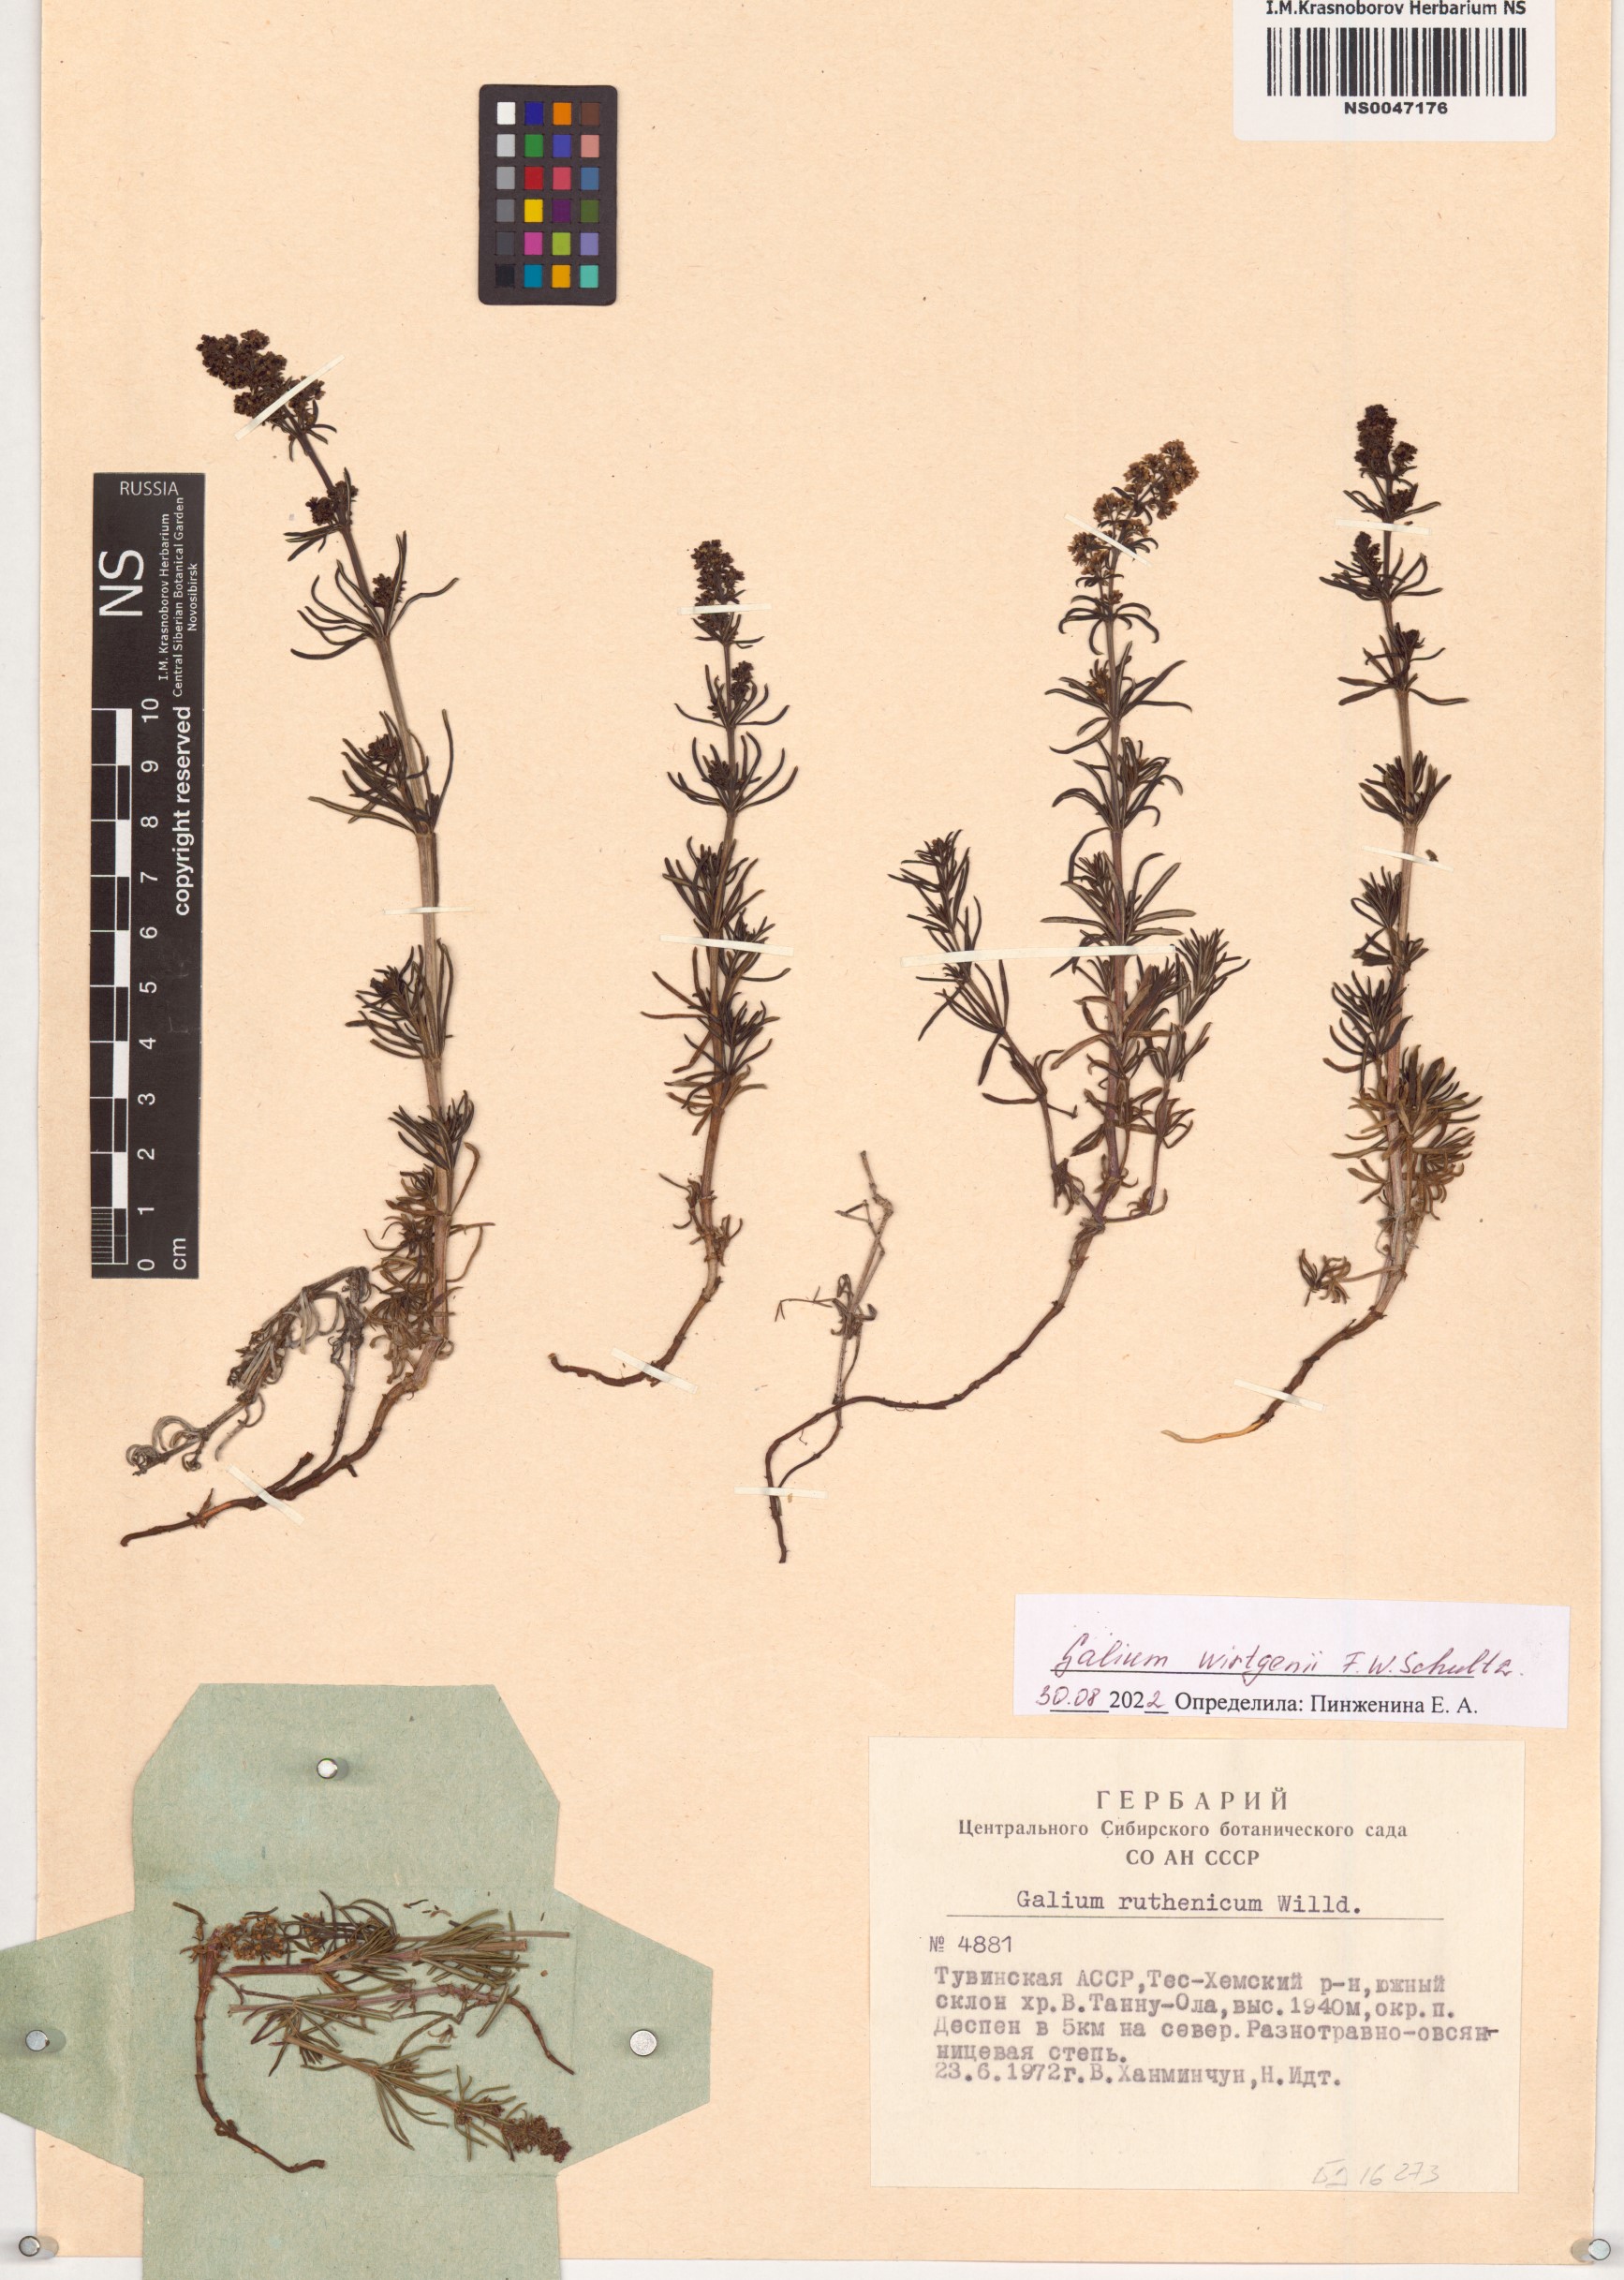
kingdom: Plantae
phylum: Tracheophyta
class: Magnoliopsida
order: Gentianales
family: Rubiaceae
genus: Galium
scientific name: Galium verum
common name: Lady's bedstraw
